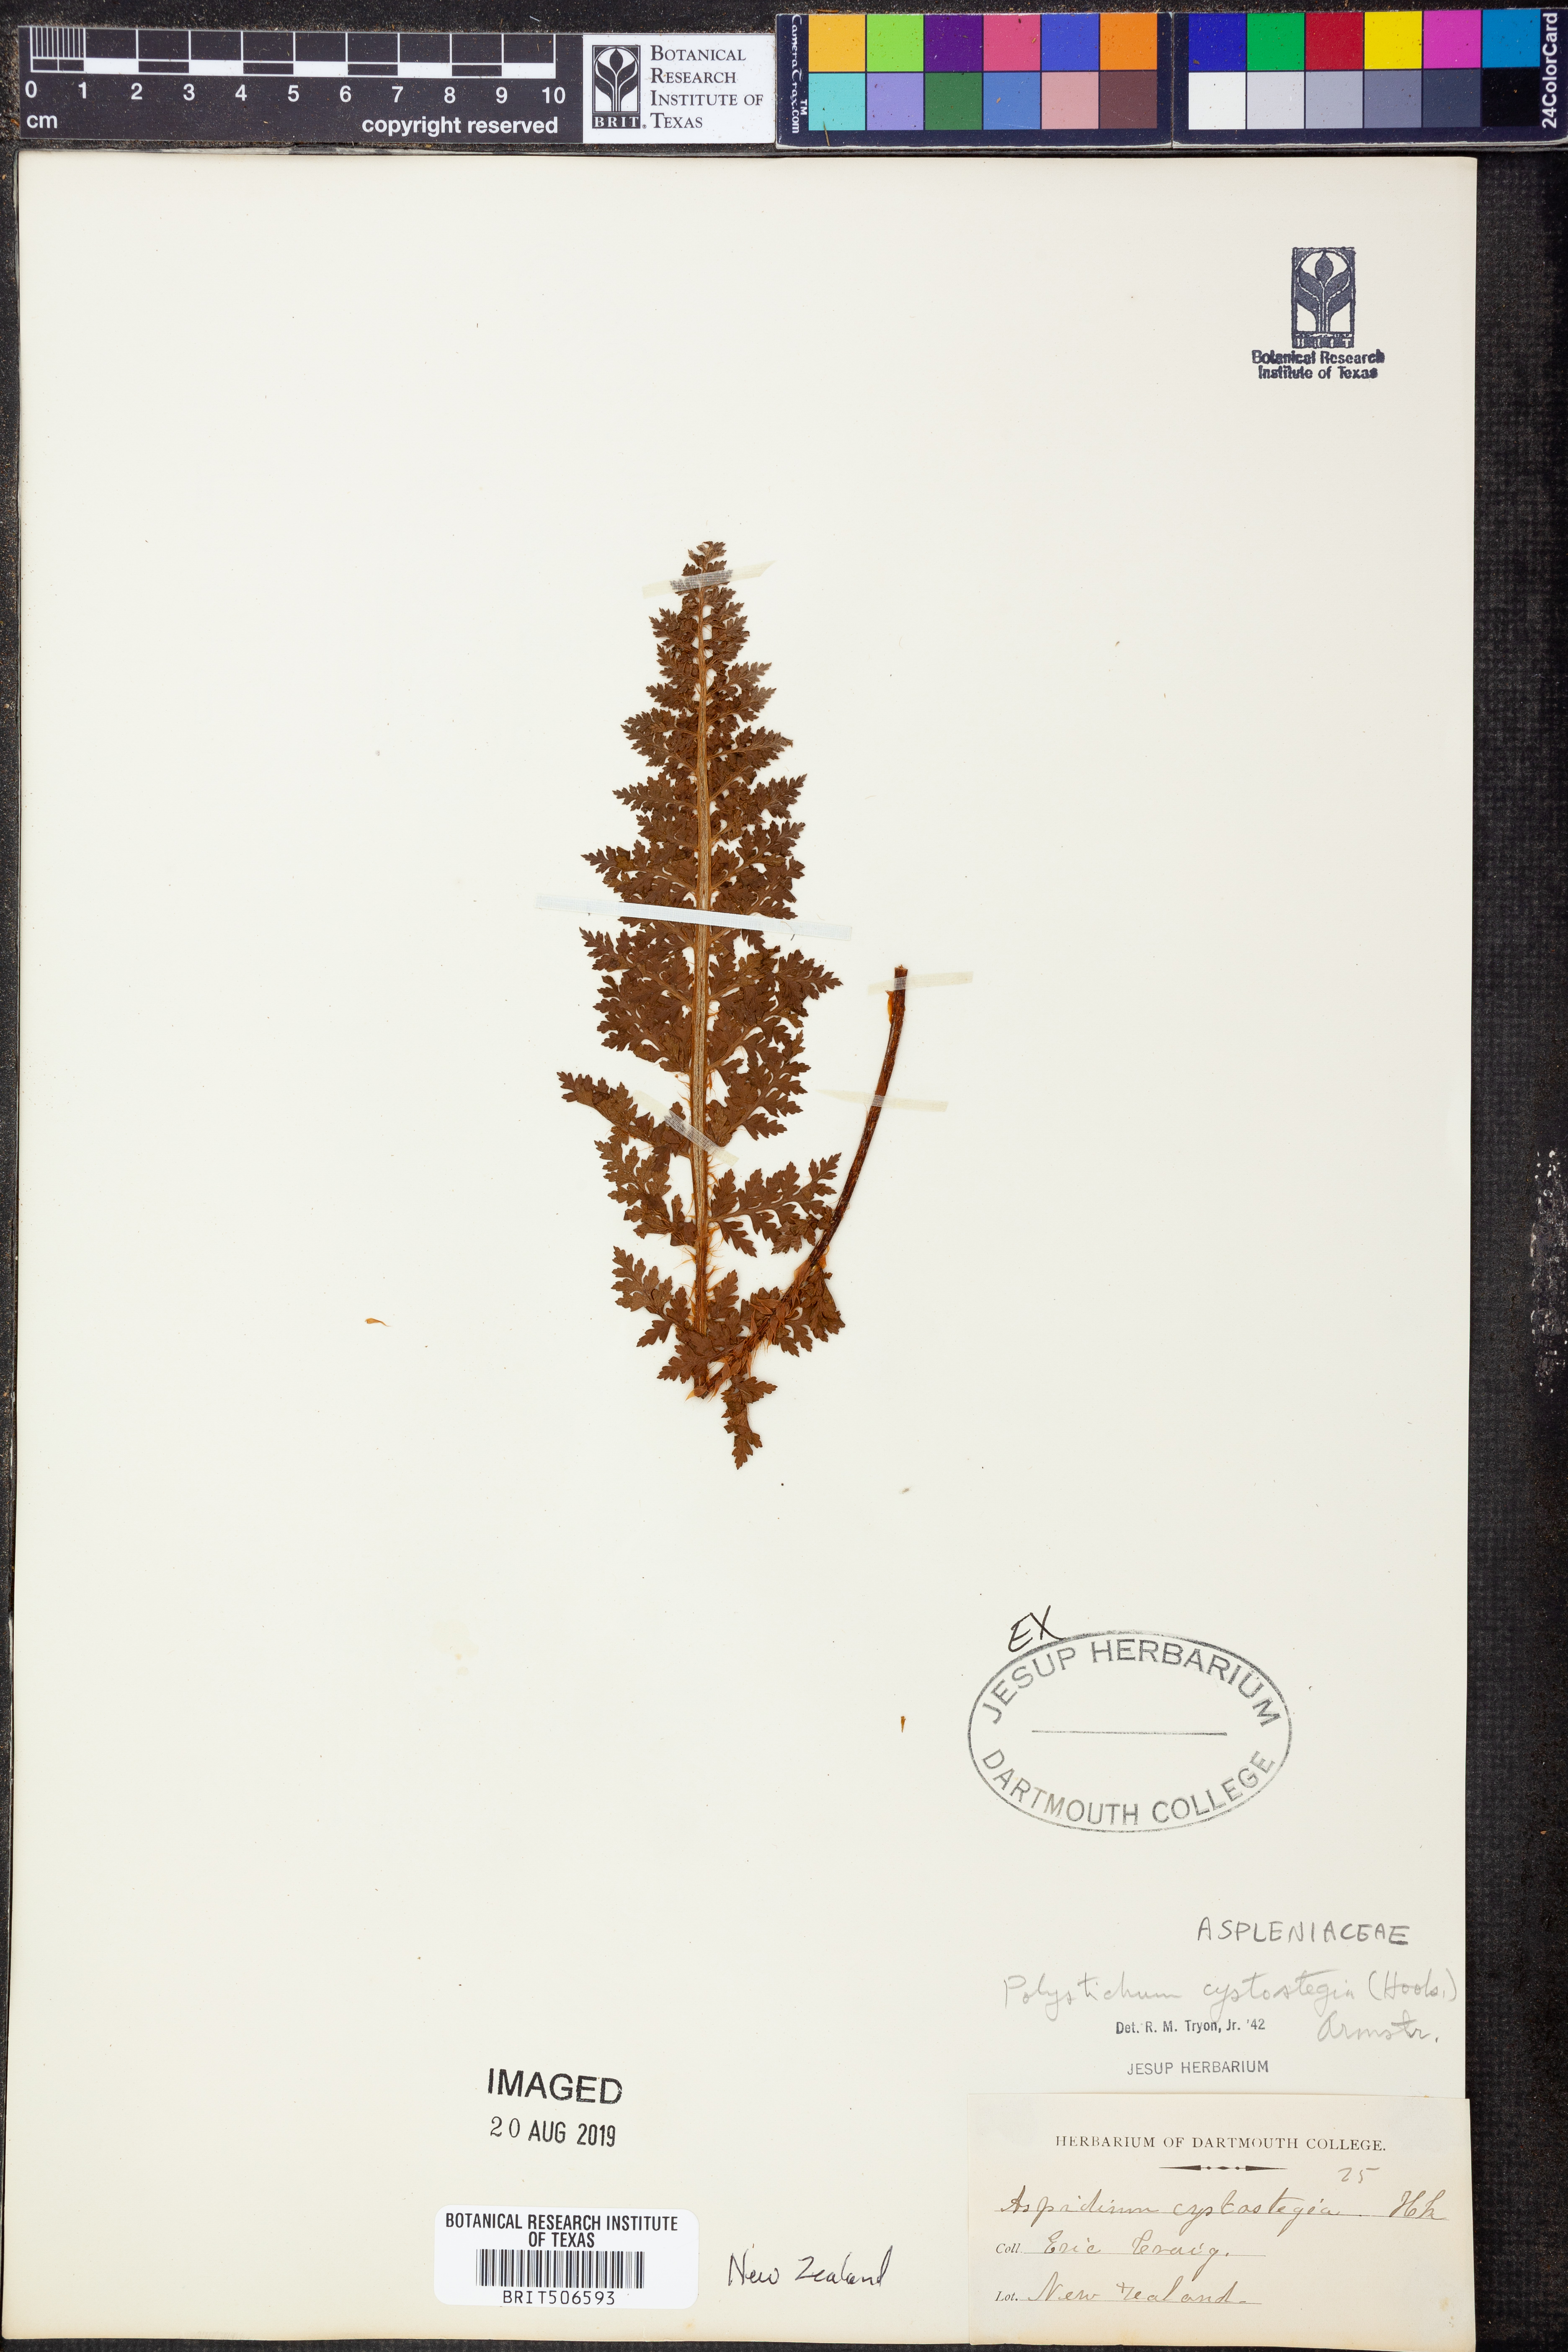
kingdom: Plantae
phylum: Tracheophyta
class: Polypodiopsida
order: Polypodiales
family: Dryopteridaceae
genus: Polystichum
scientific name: Polystichum cystostegia
